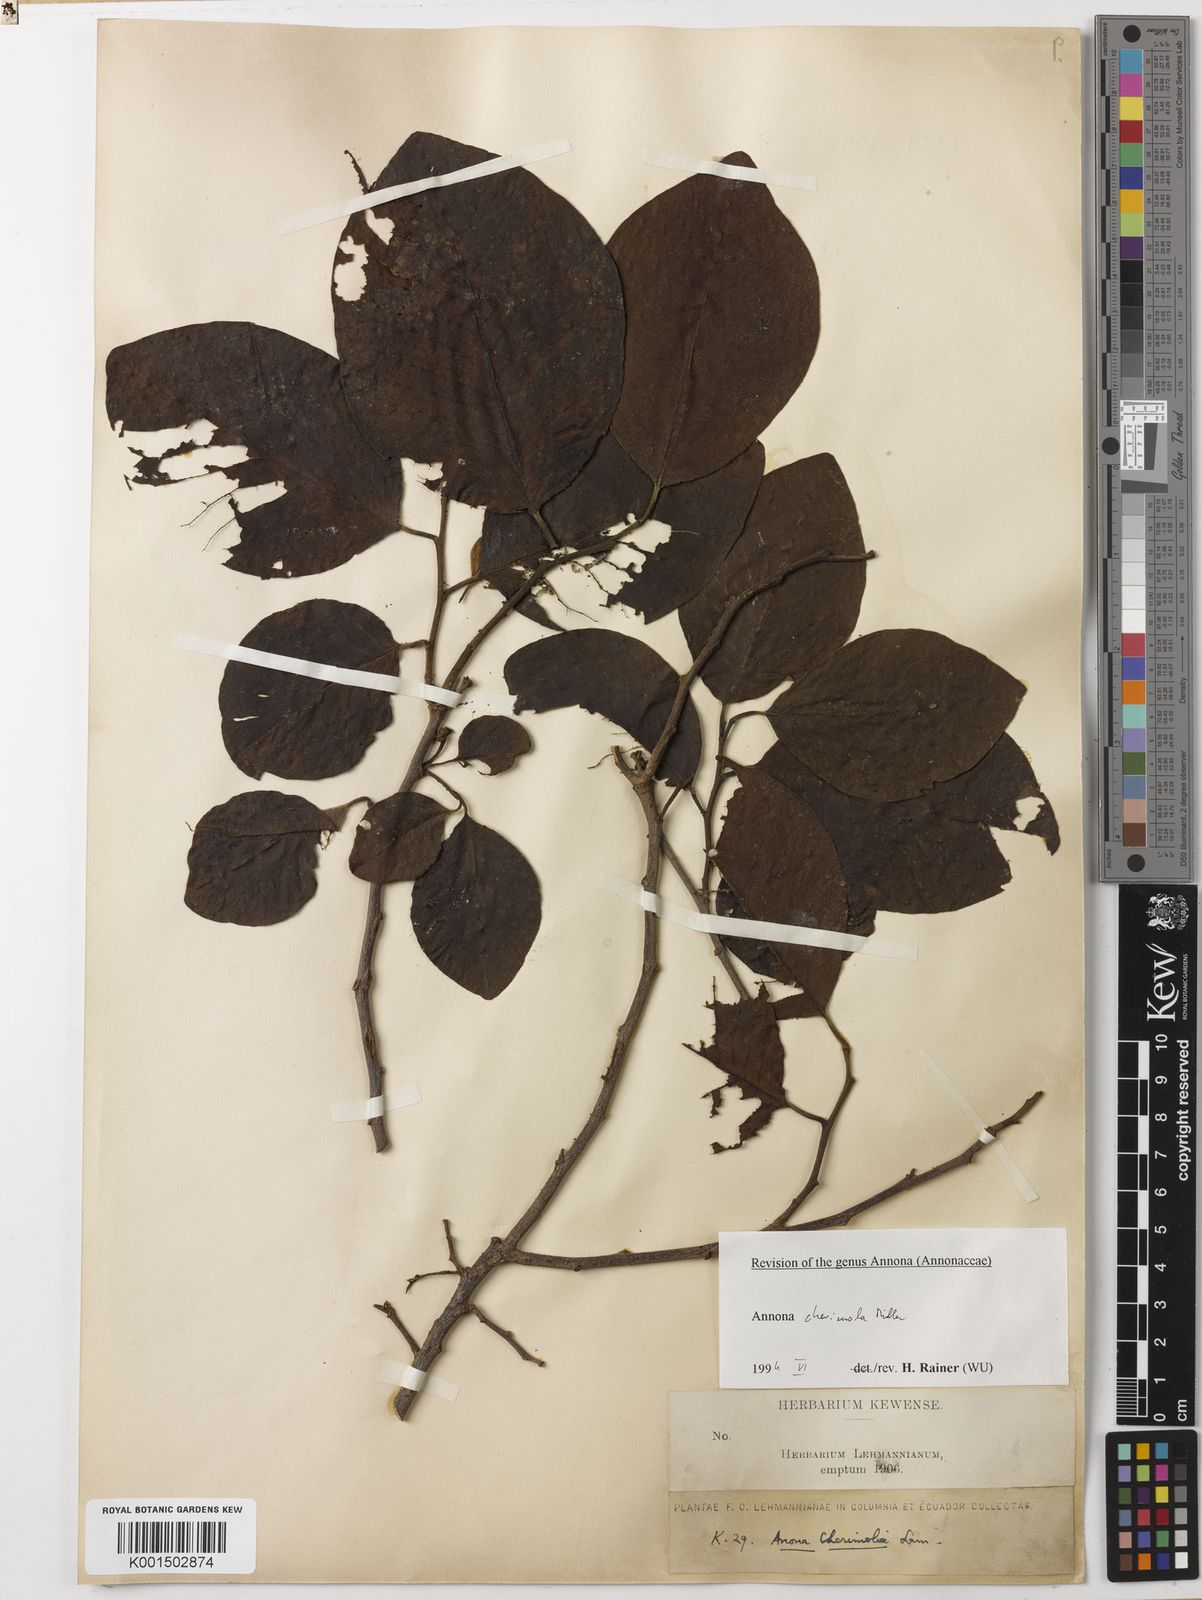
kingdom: Plantae
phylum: Tracheophyta
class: Magnoliopsida
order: Magnoliales
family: Annonaceae
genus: Annona
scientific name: Annona cherimola
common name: Cherimoya
